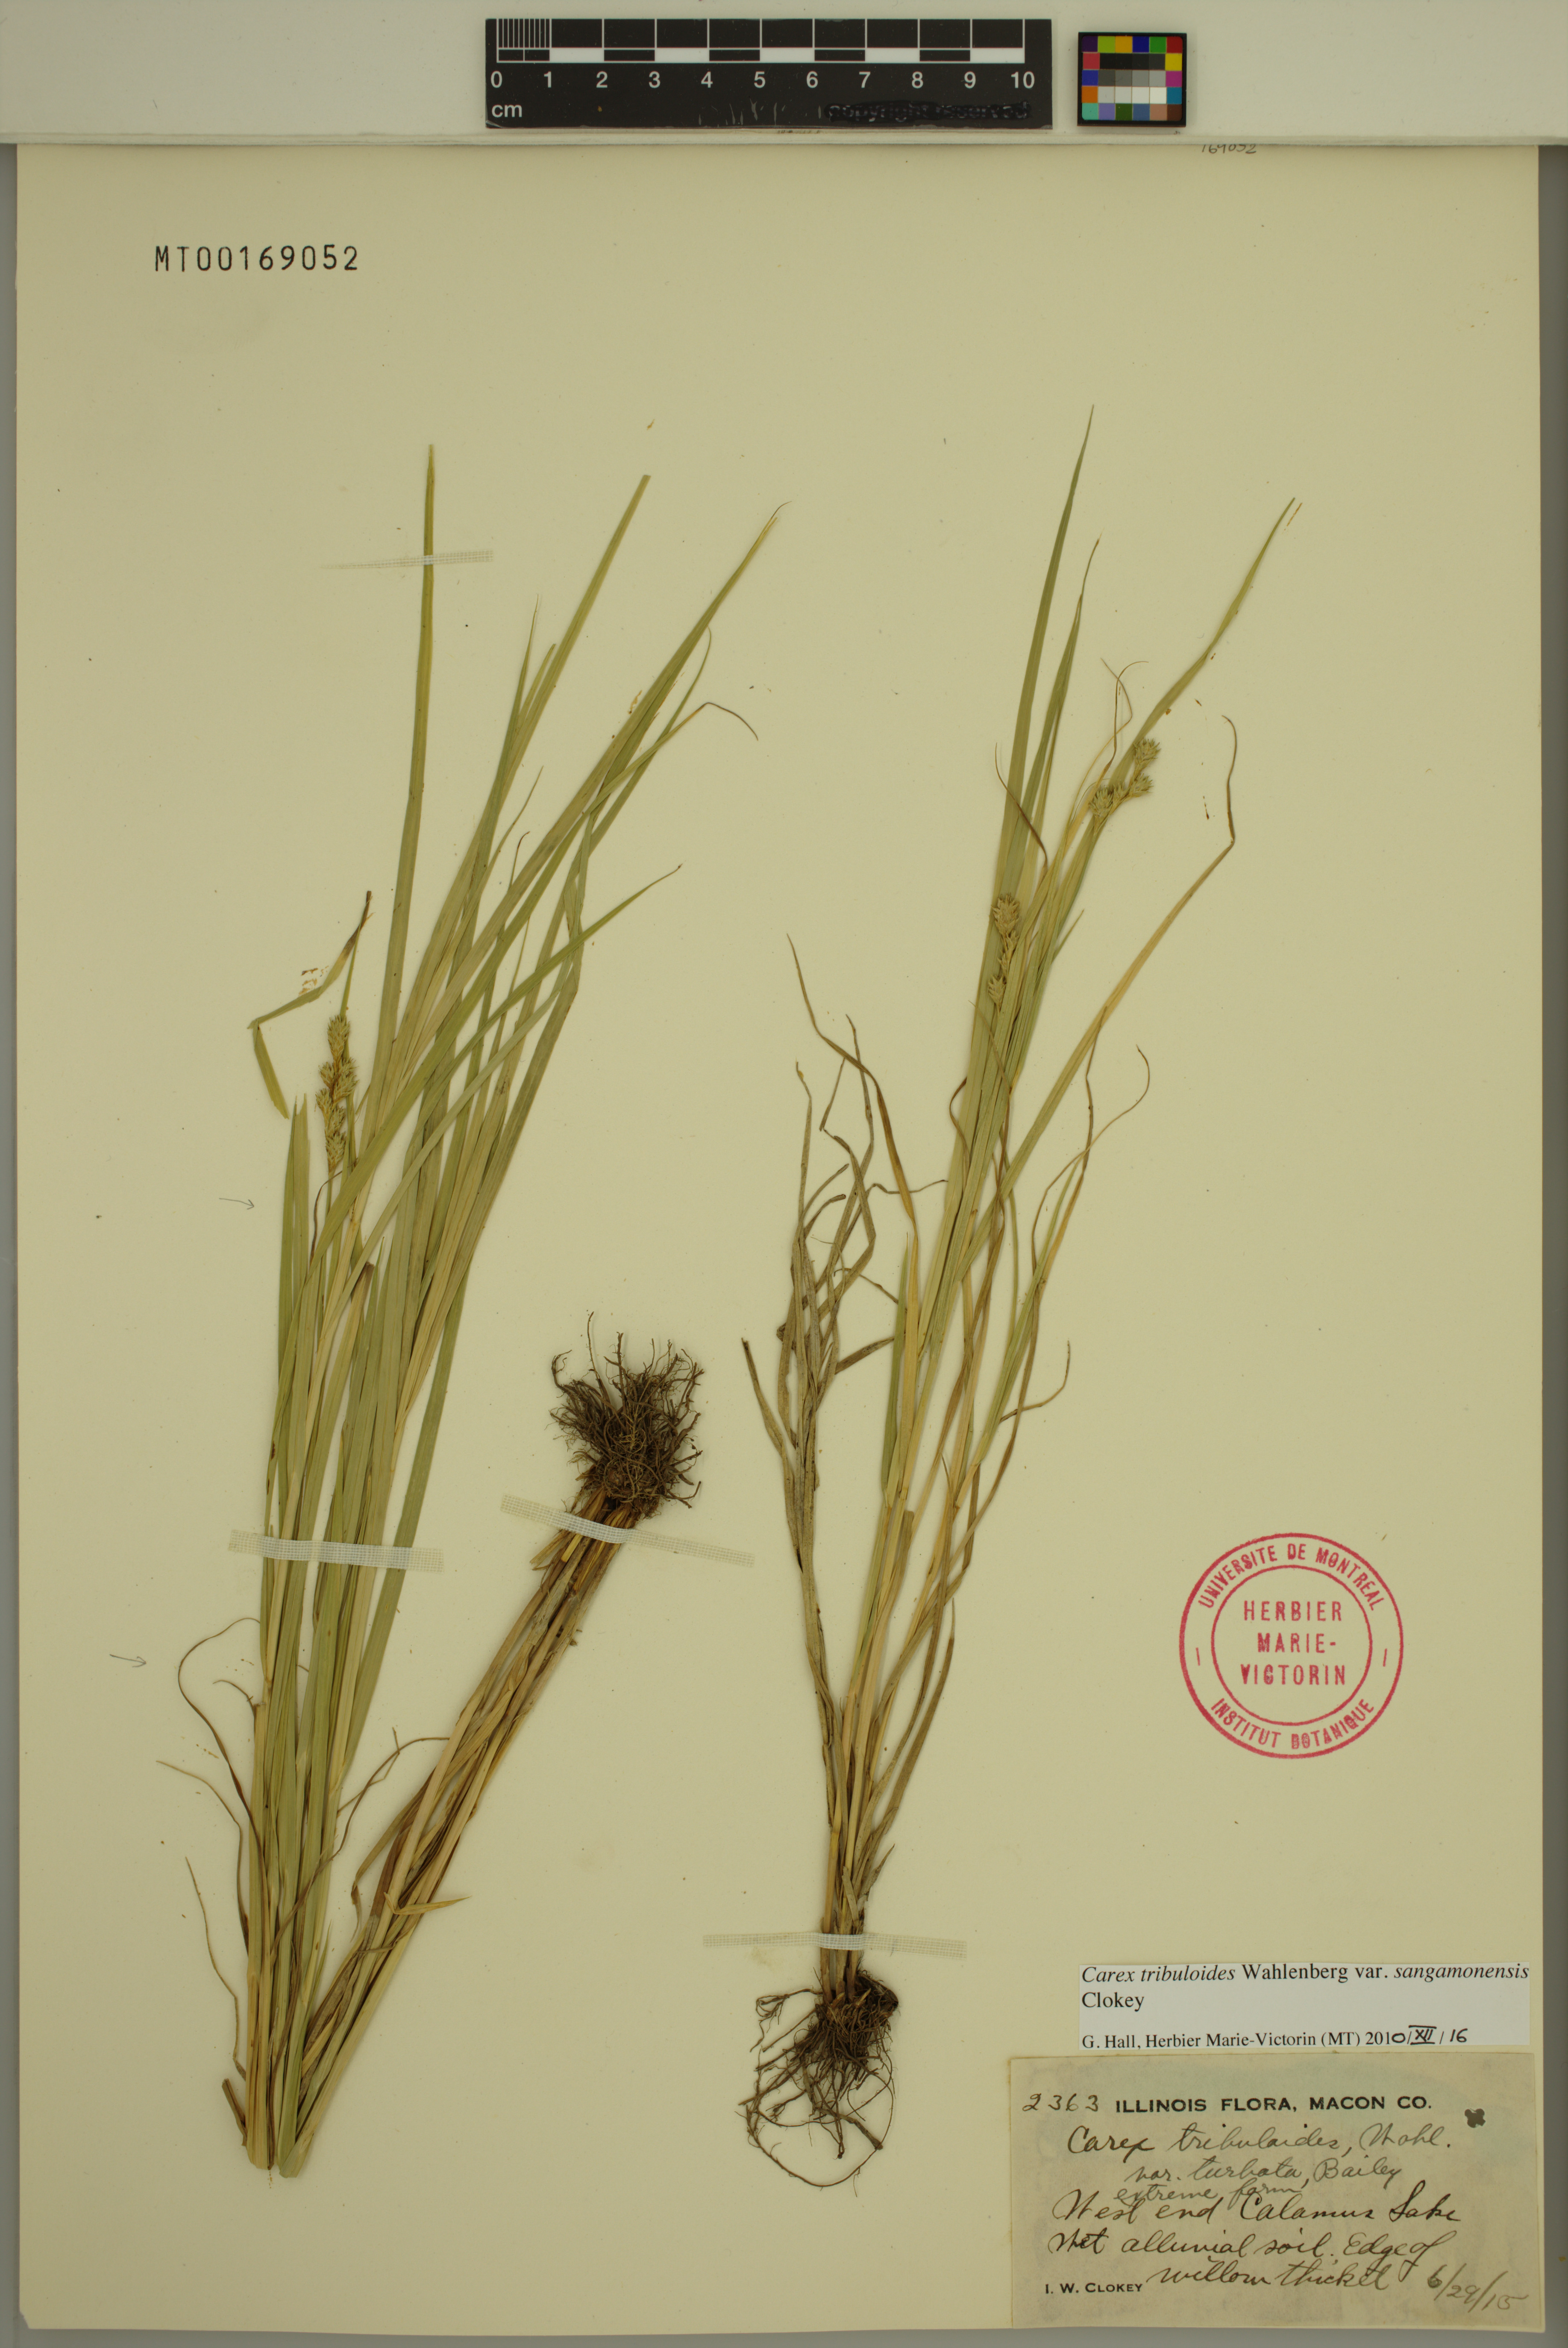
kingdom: Plantae
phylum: Tracheophyta
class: Liliopsida
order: Poales
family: Cyperaceae
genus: Carex
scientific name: Carex tribuloides
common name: Blunt broom sedge
